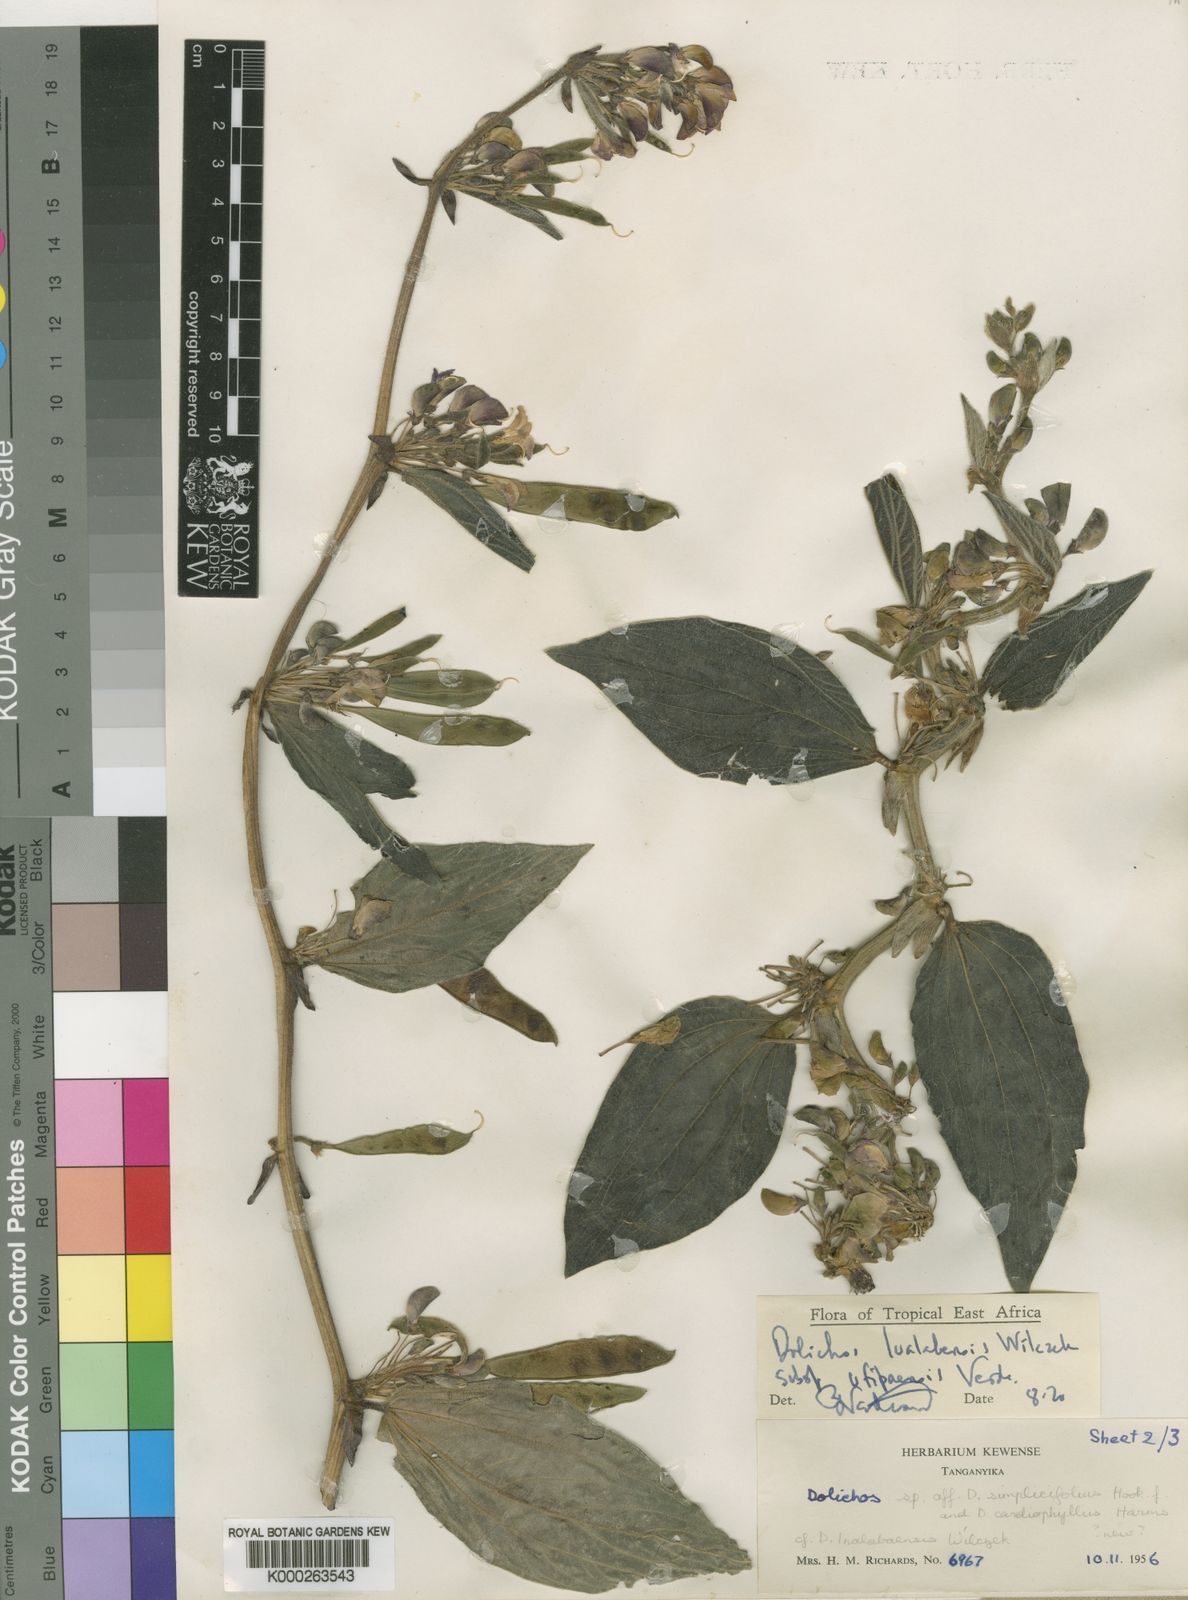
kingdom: Plantae
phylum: Tracheophyta
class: Magnoliopsida
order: Fabales
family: Fabaceae
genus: Dolichos
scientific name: Dolichos lualabensis
